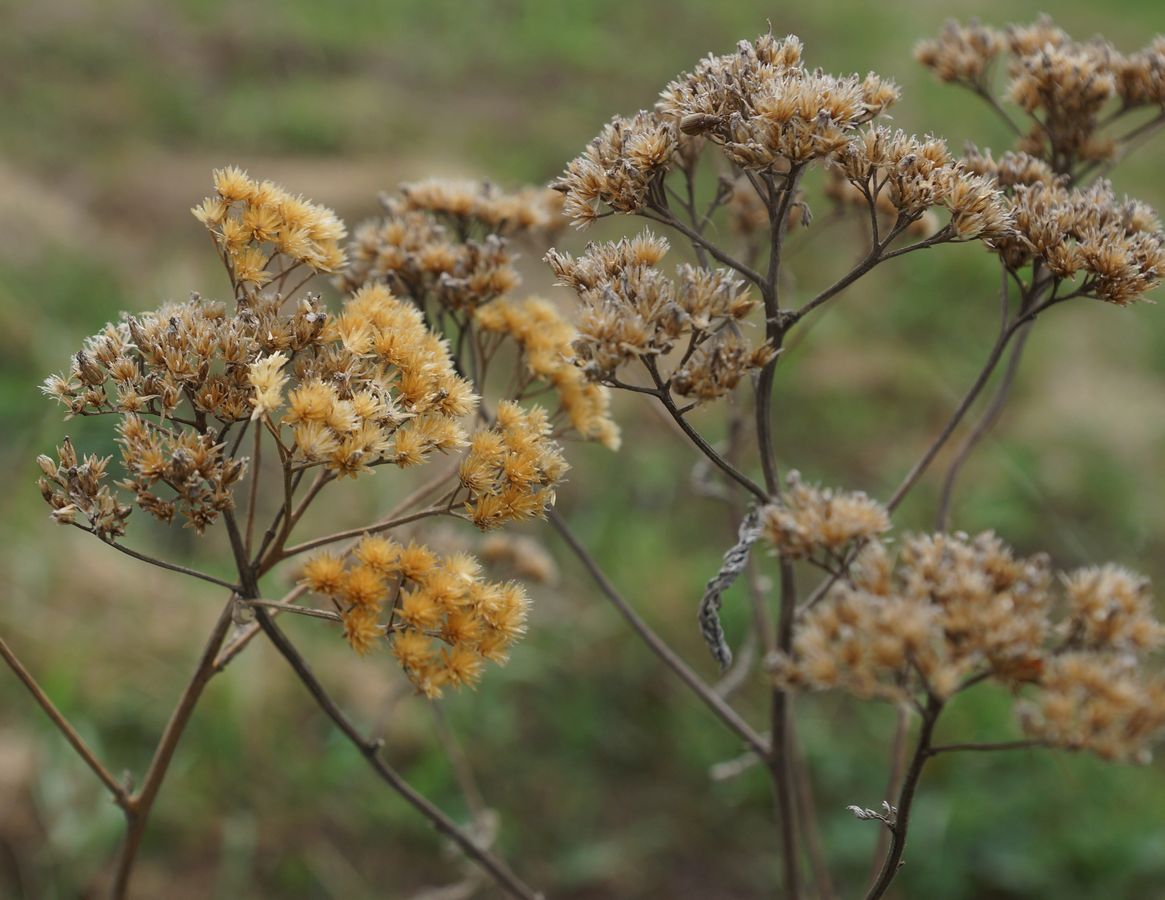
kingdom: Plantae
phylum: Tracheophyta
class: Magnoliopsida
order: Asterales
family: Asteraceae
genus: Eupatorium
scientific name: Eupatorium cannabinum
